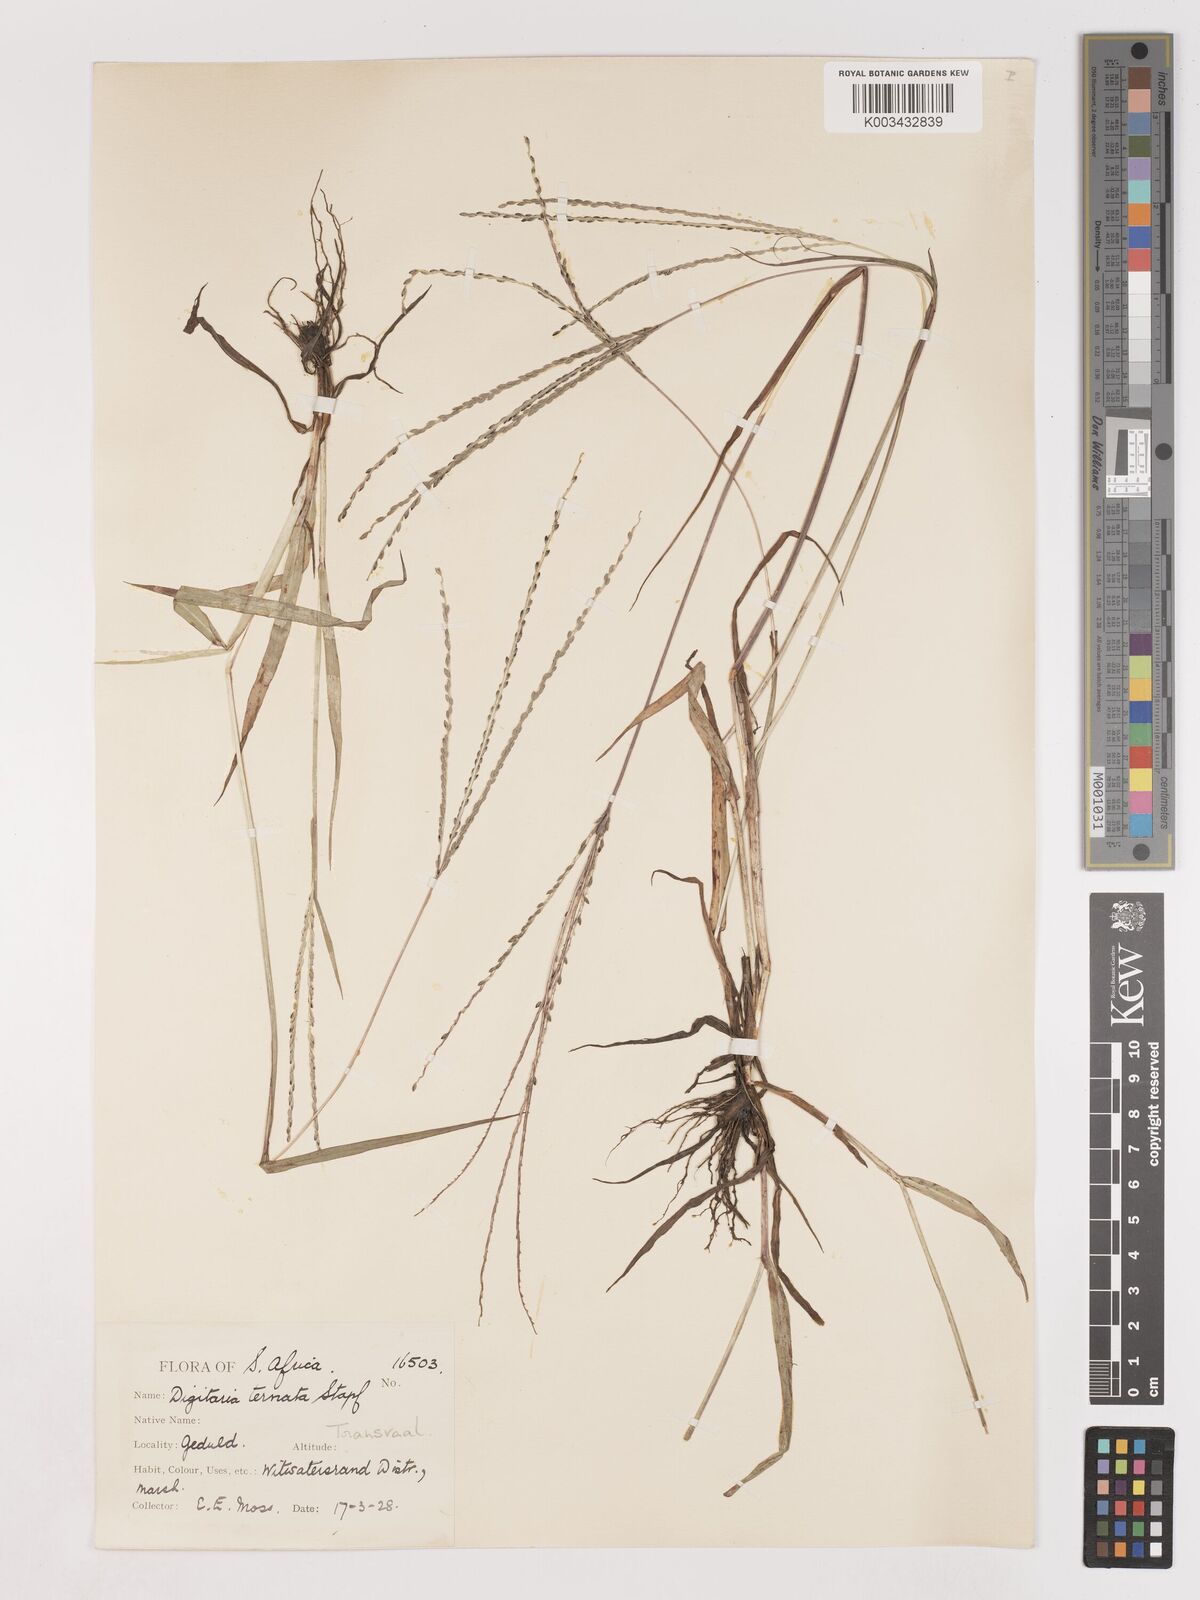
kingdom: Plantae
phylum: Tracheophyta
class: Liliopsida
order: Poales
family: Poaceae
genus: Digitaria
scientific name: Digitaria ternata
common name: Blackseed crabgrass
